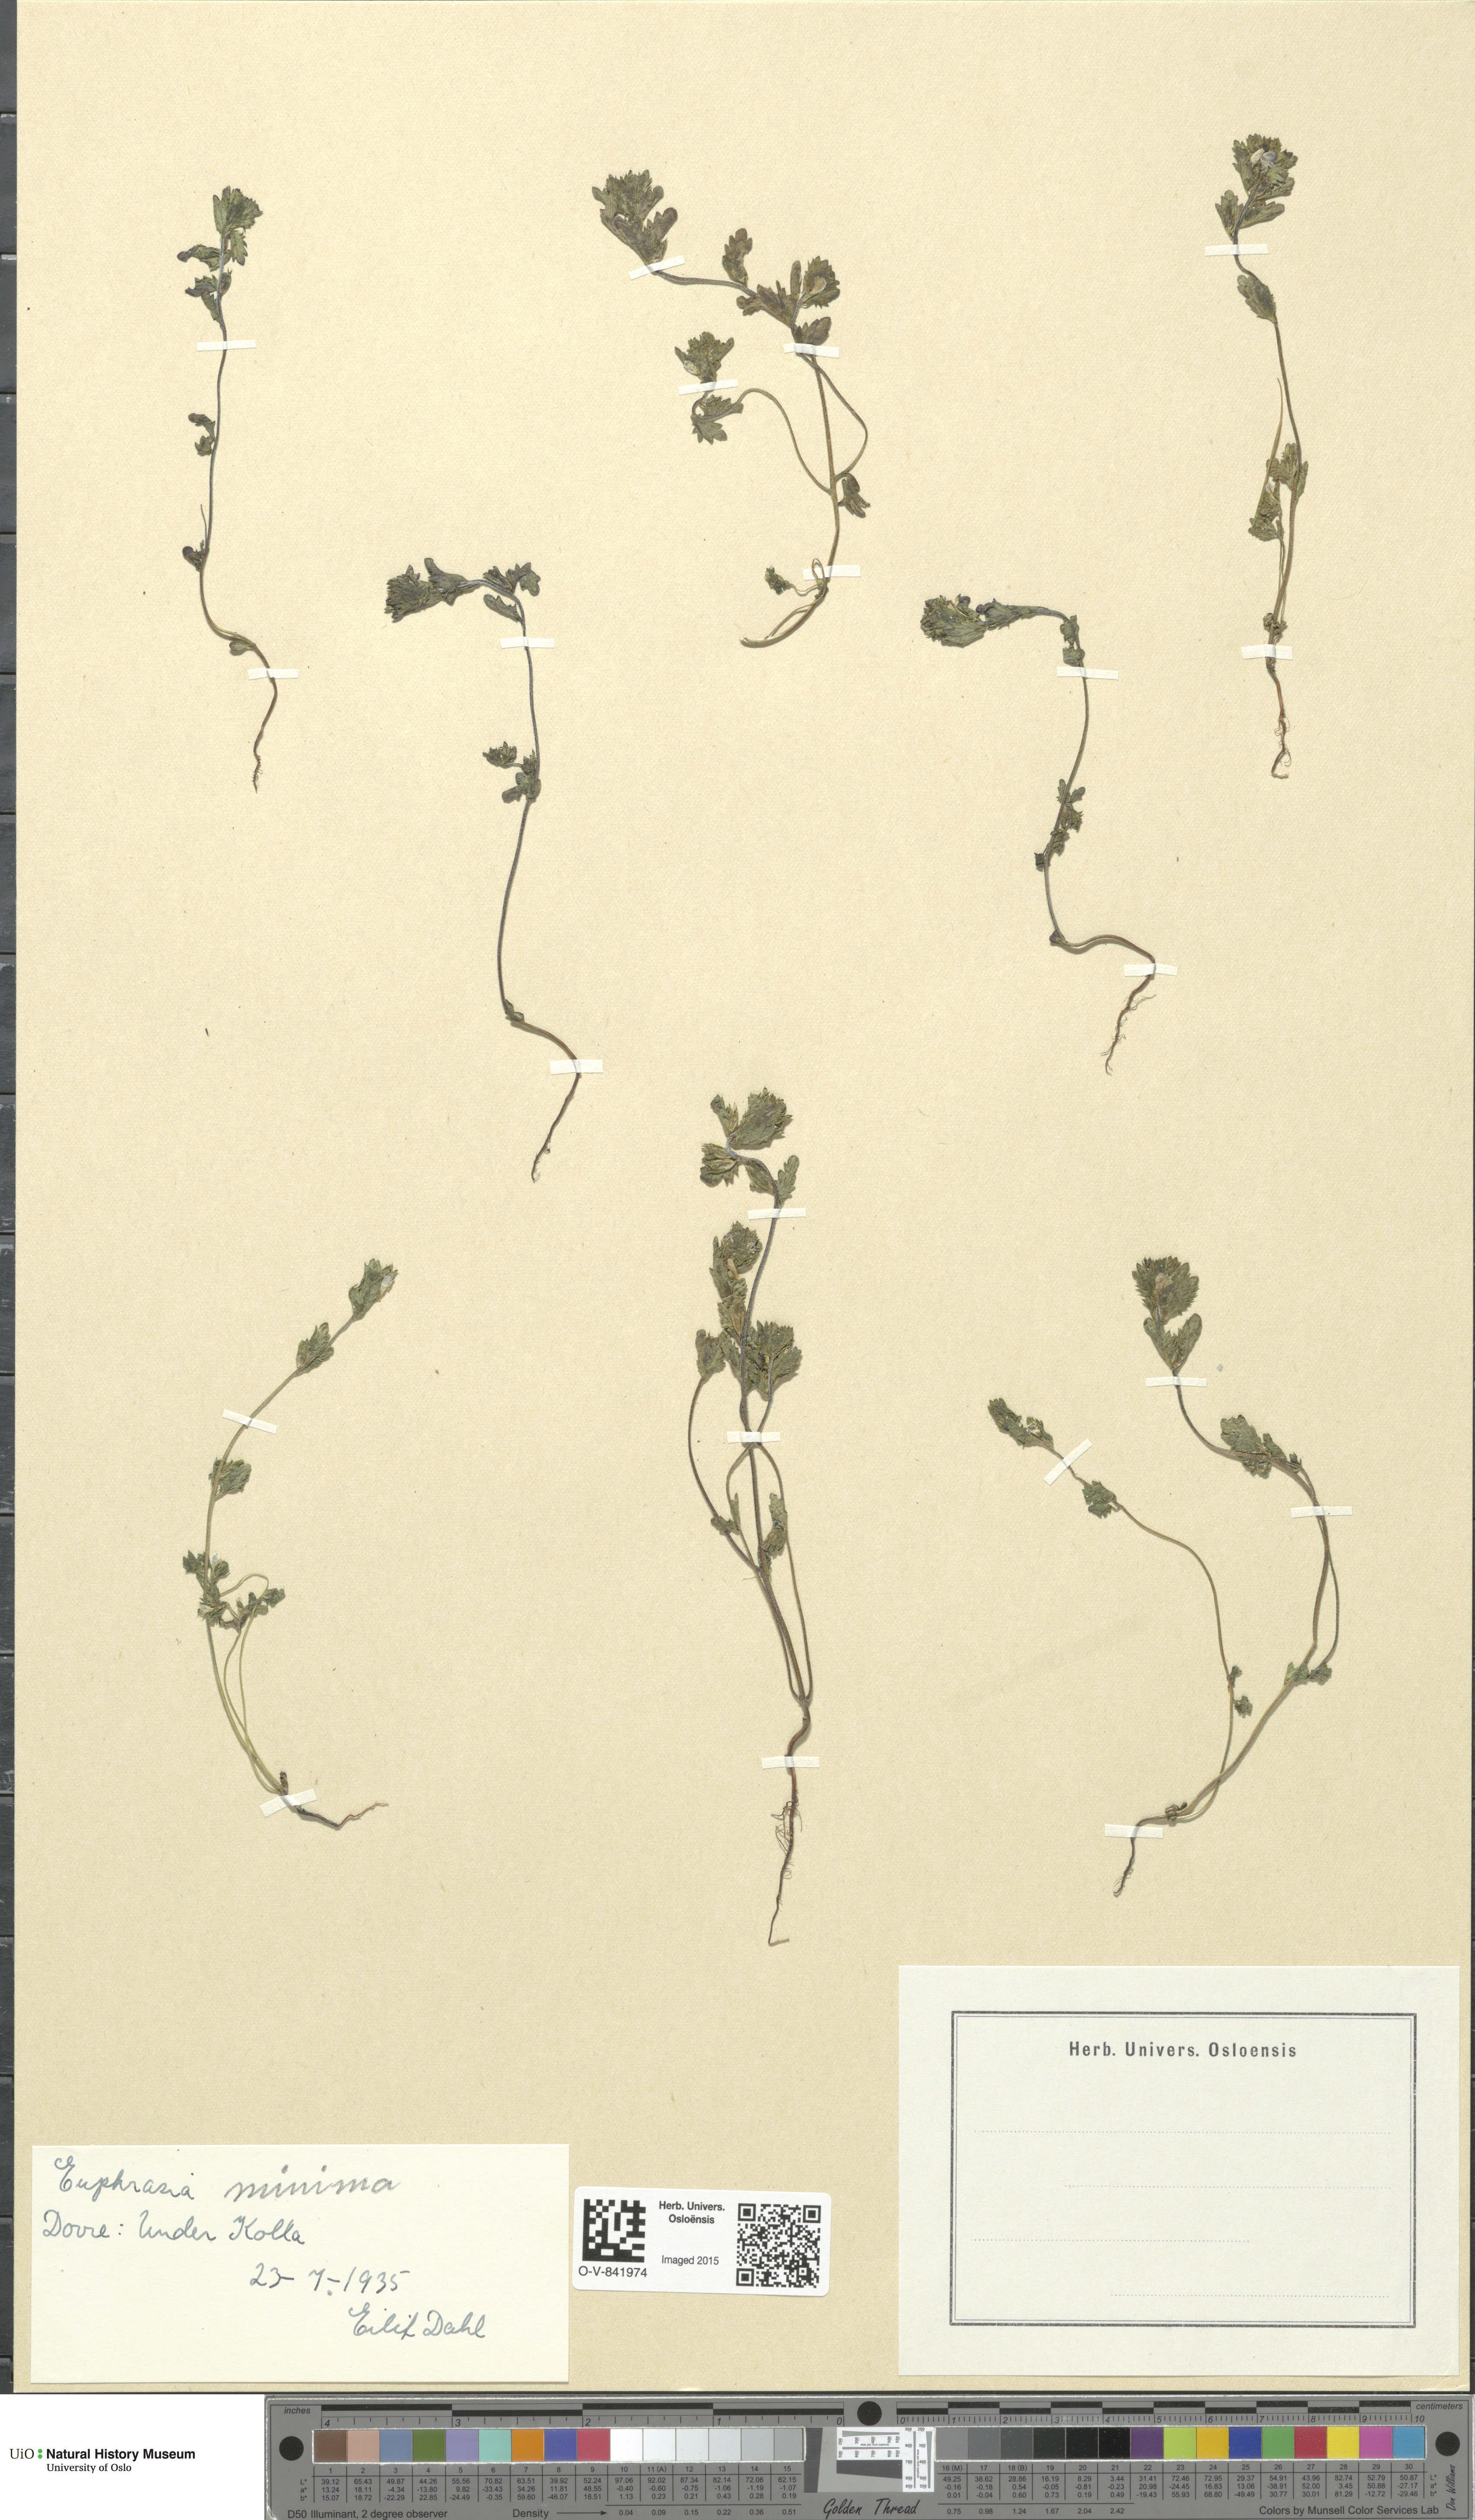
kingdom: Plantae
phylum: Tracheophyta
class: Magnoliopsida
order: Lamiales
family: Orobanchaceae
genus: Euphrasia
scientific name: Euphrasia wettsteinii
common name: Wettstein's eyebright
